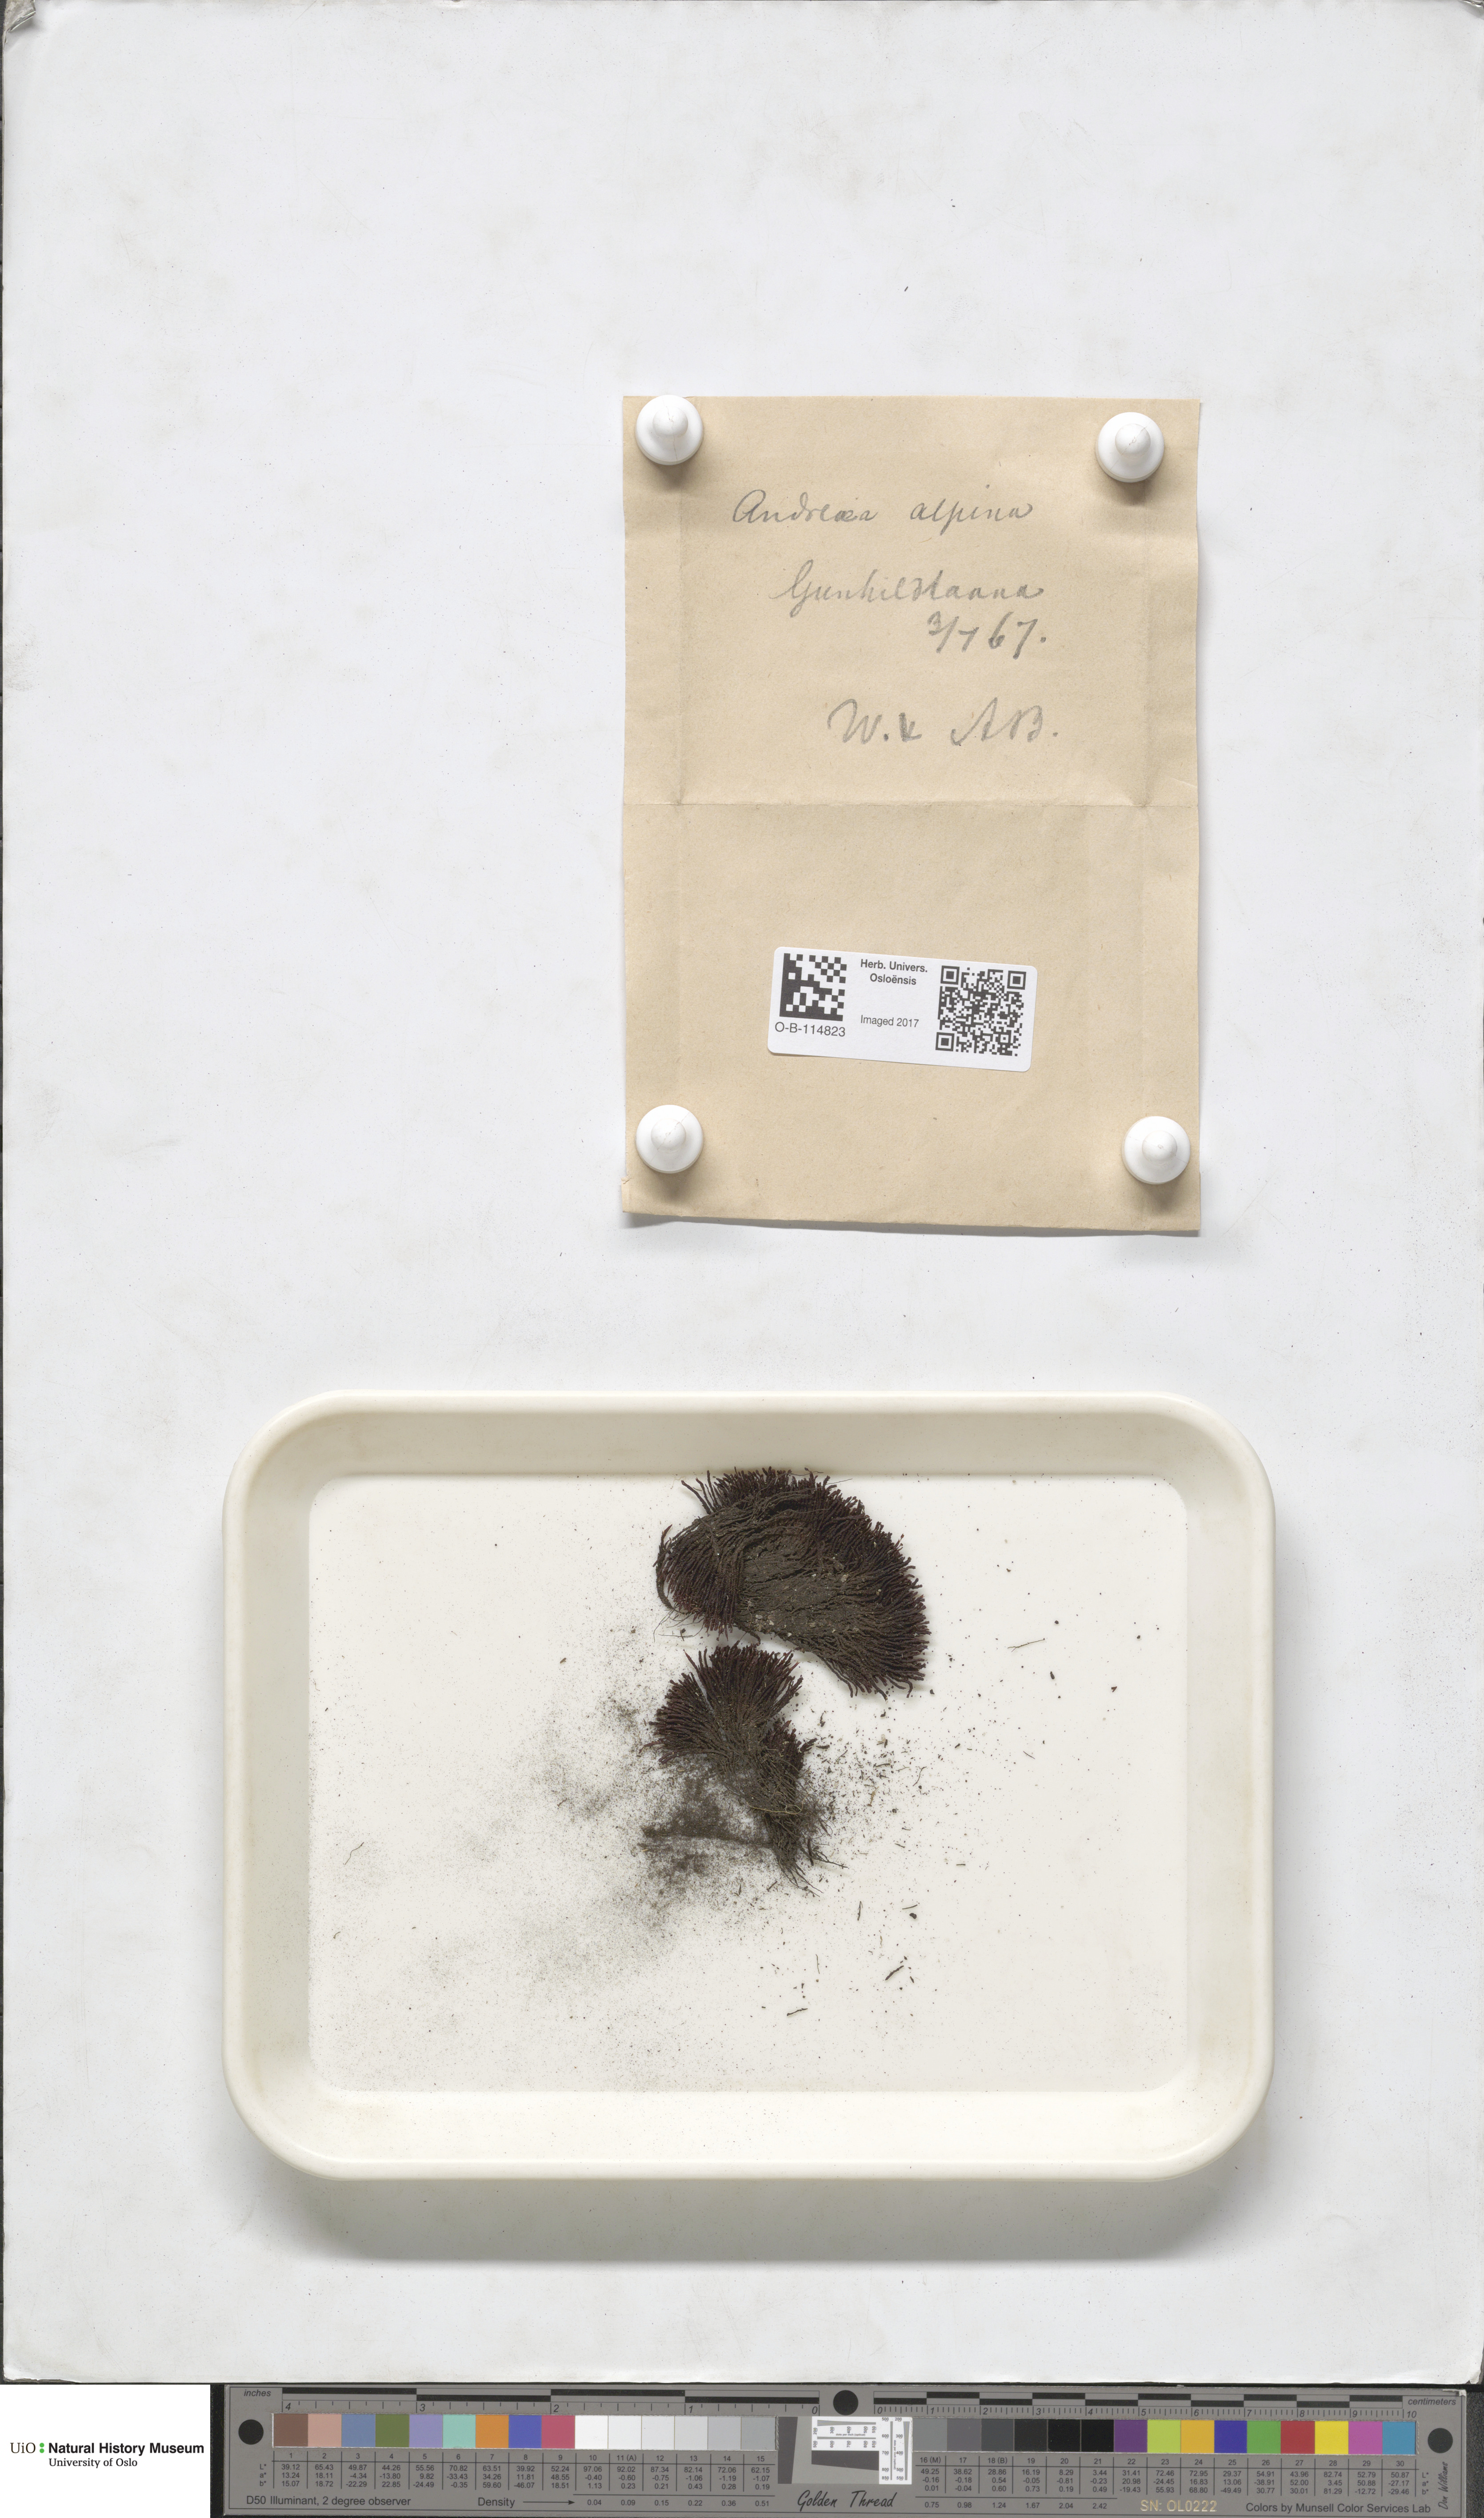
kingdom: Plantae
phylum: Bryophyta
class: Andreaeopsida
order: Andreaeales
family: Andreaeaceae
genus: Andreaea
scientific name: Andreaea hookeri
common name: Alpine rock-moss
